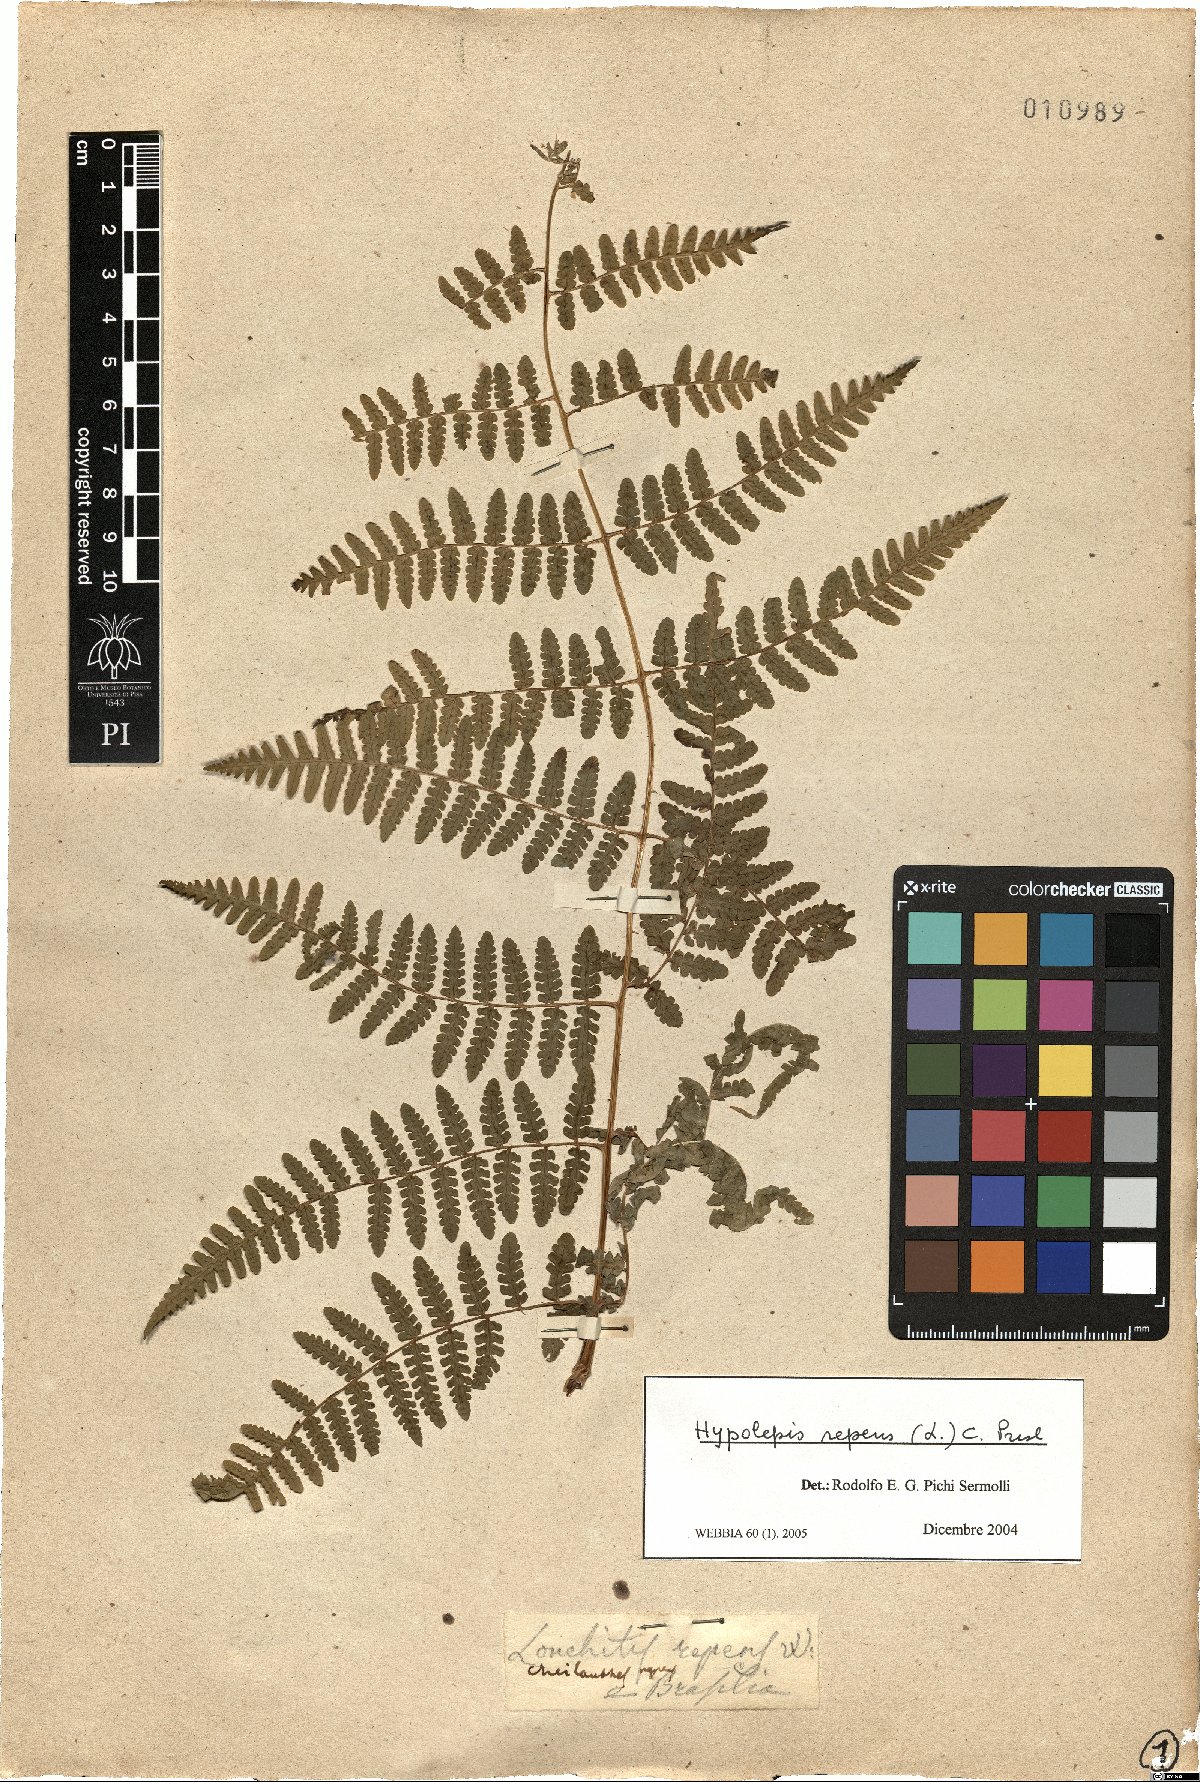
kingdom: Plantae
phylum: Tracheophyta
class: Polypodiopsida
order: Polypodiales
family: Dennstaedtiaceae
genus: Hypolepis
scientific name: Hypolepis repens
